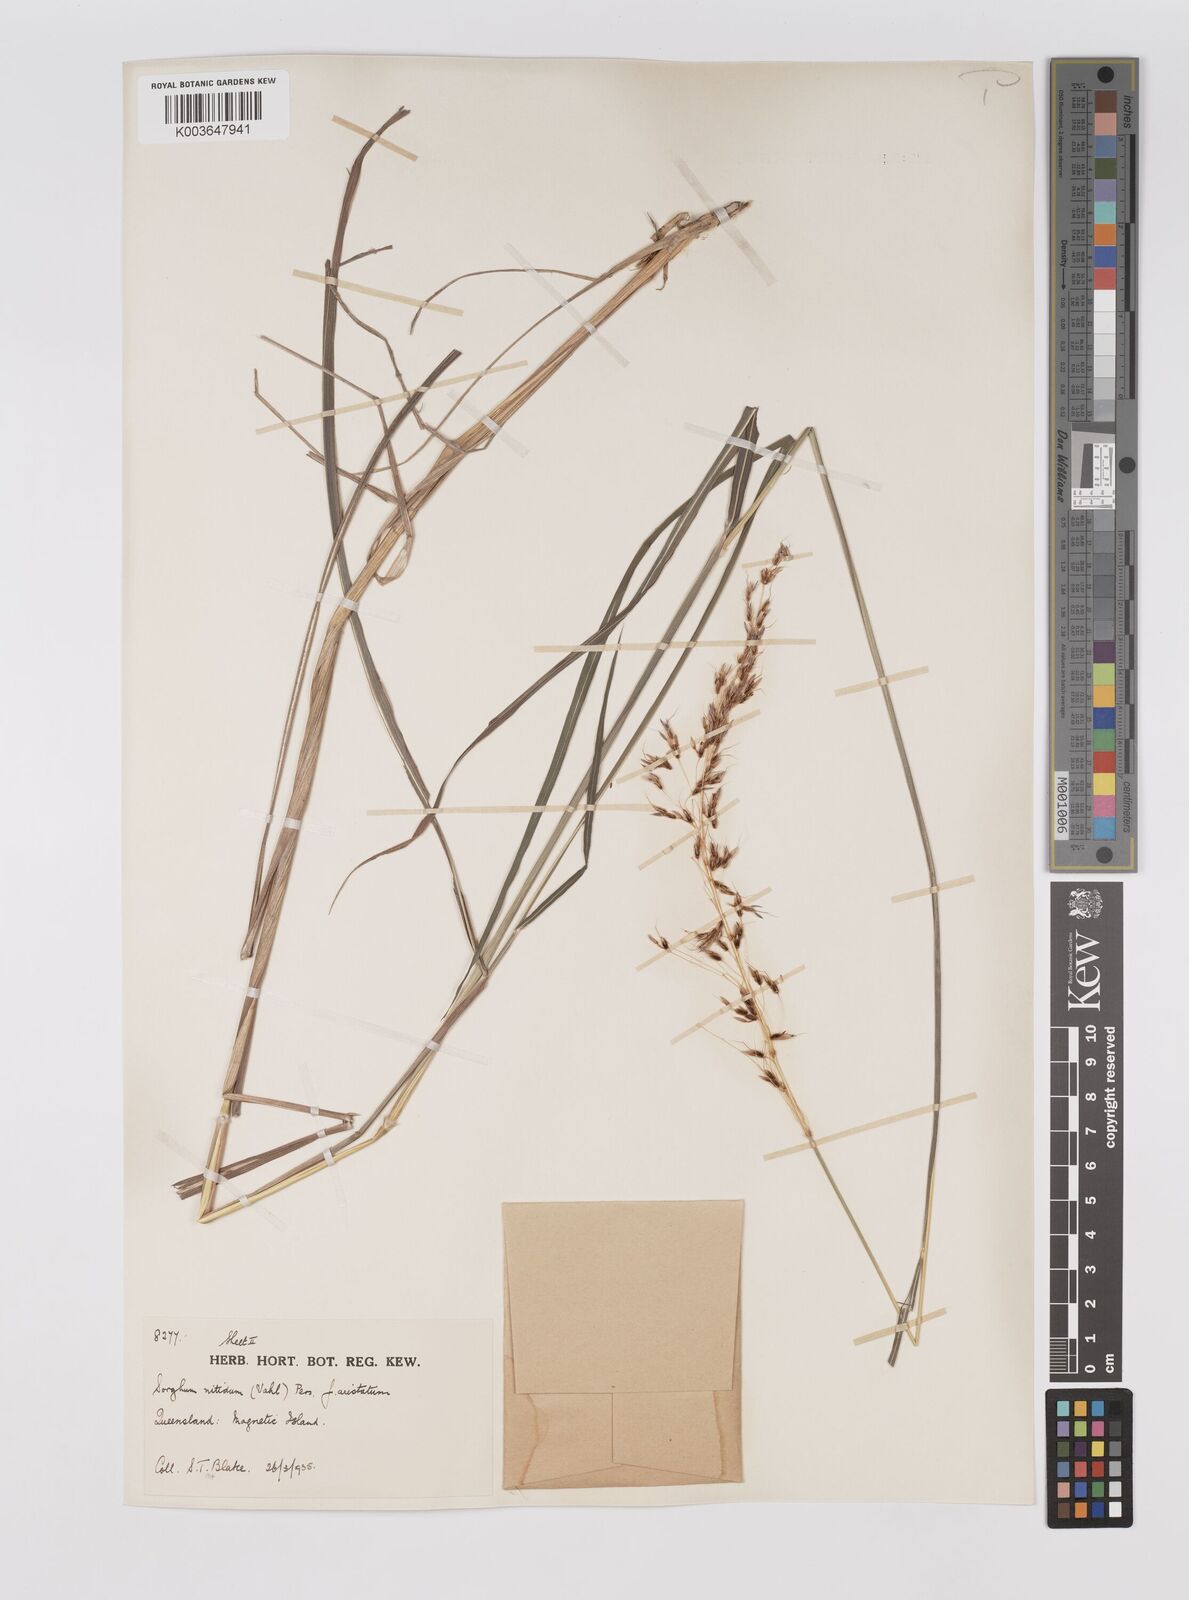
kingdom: Plantae
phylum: Tracheophyta
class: Liliopsida
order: Poales
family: Poaceae
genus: Sorghum
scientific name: Sorghum nitidum
